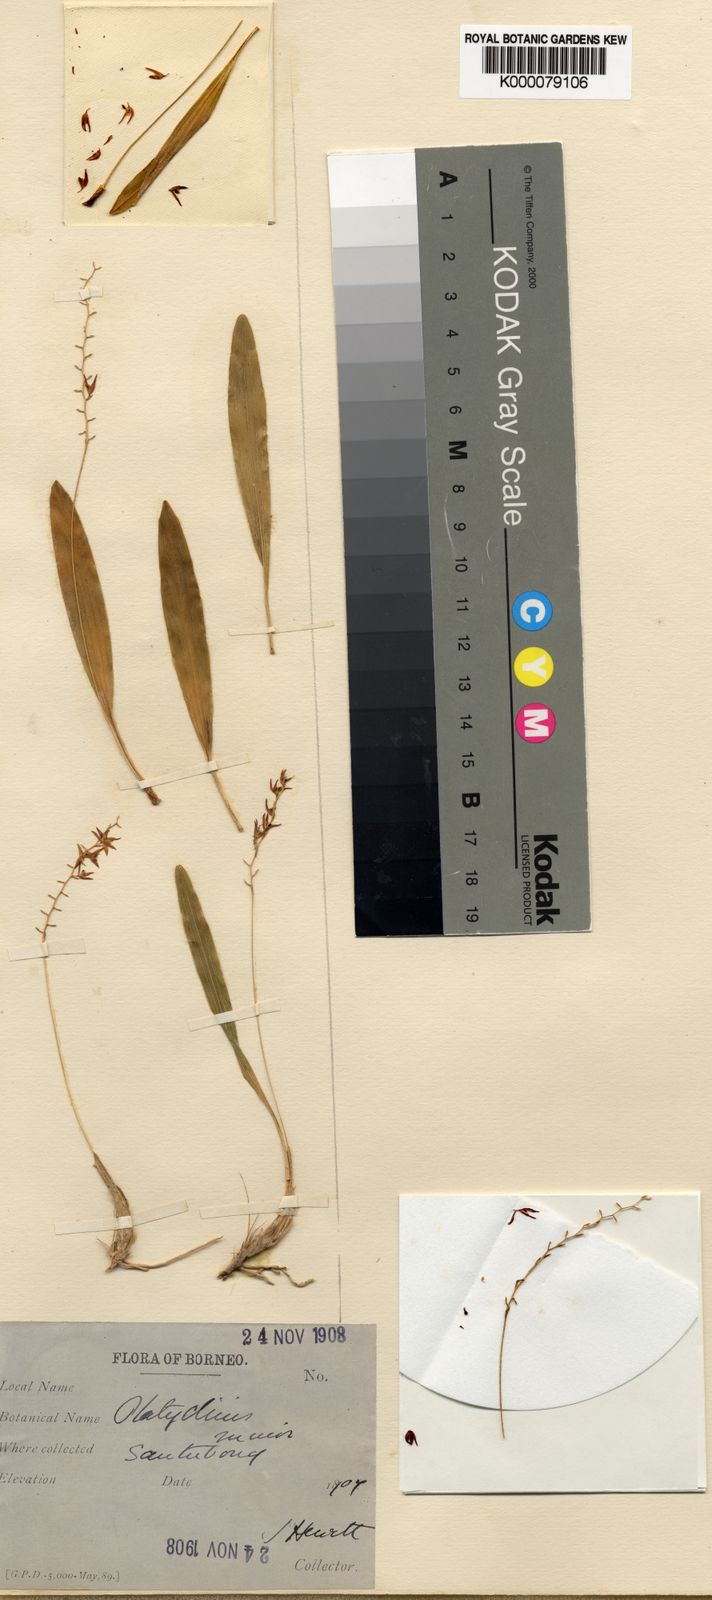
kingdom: Plantae
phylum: Tracheophyta
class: Liliopsida
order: Asparagales
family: Orchidaceae
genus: Coelogyne
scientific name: Coelogyne globigera
